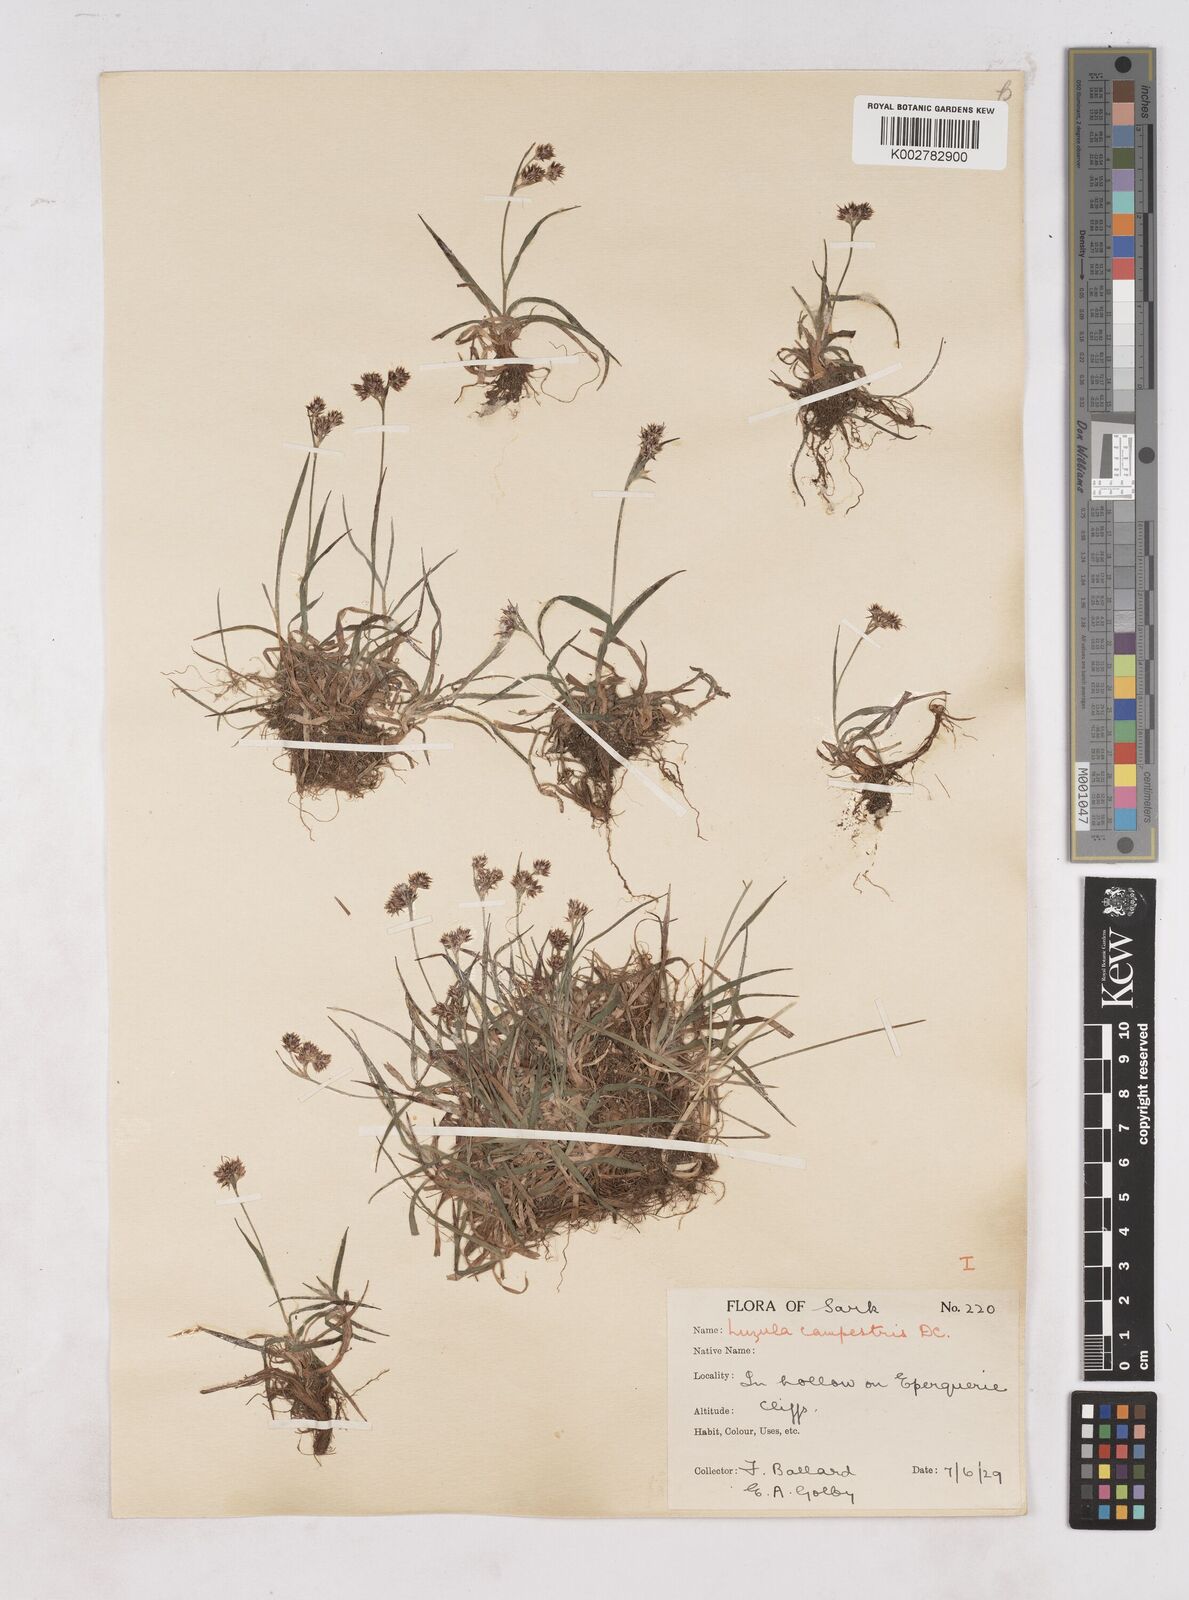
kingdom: Plantae
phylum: Tracheophyta
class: Liliopsida
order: Poales
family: Juncaceae
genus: Luzula
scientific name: Luzula campestris
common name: Field wood-rush
